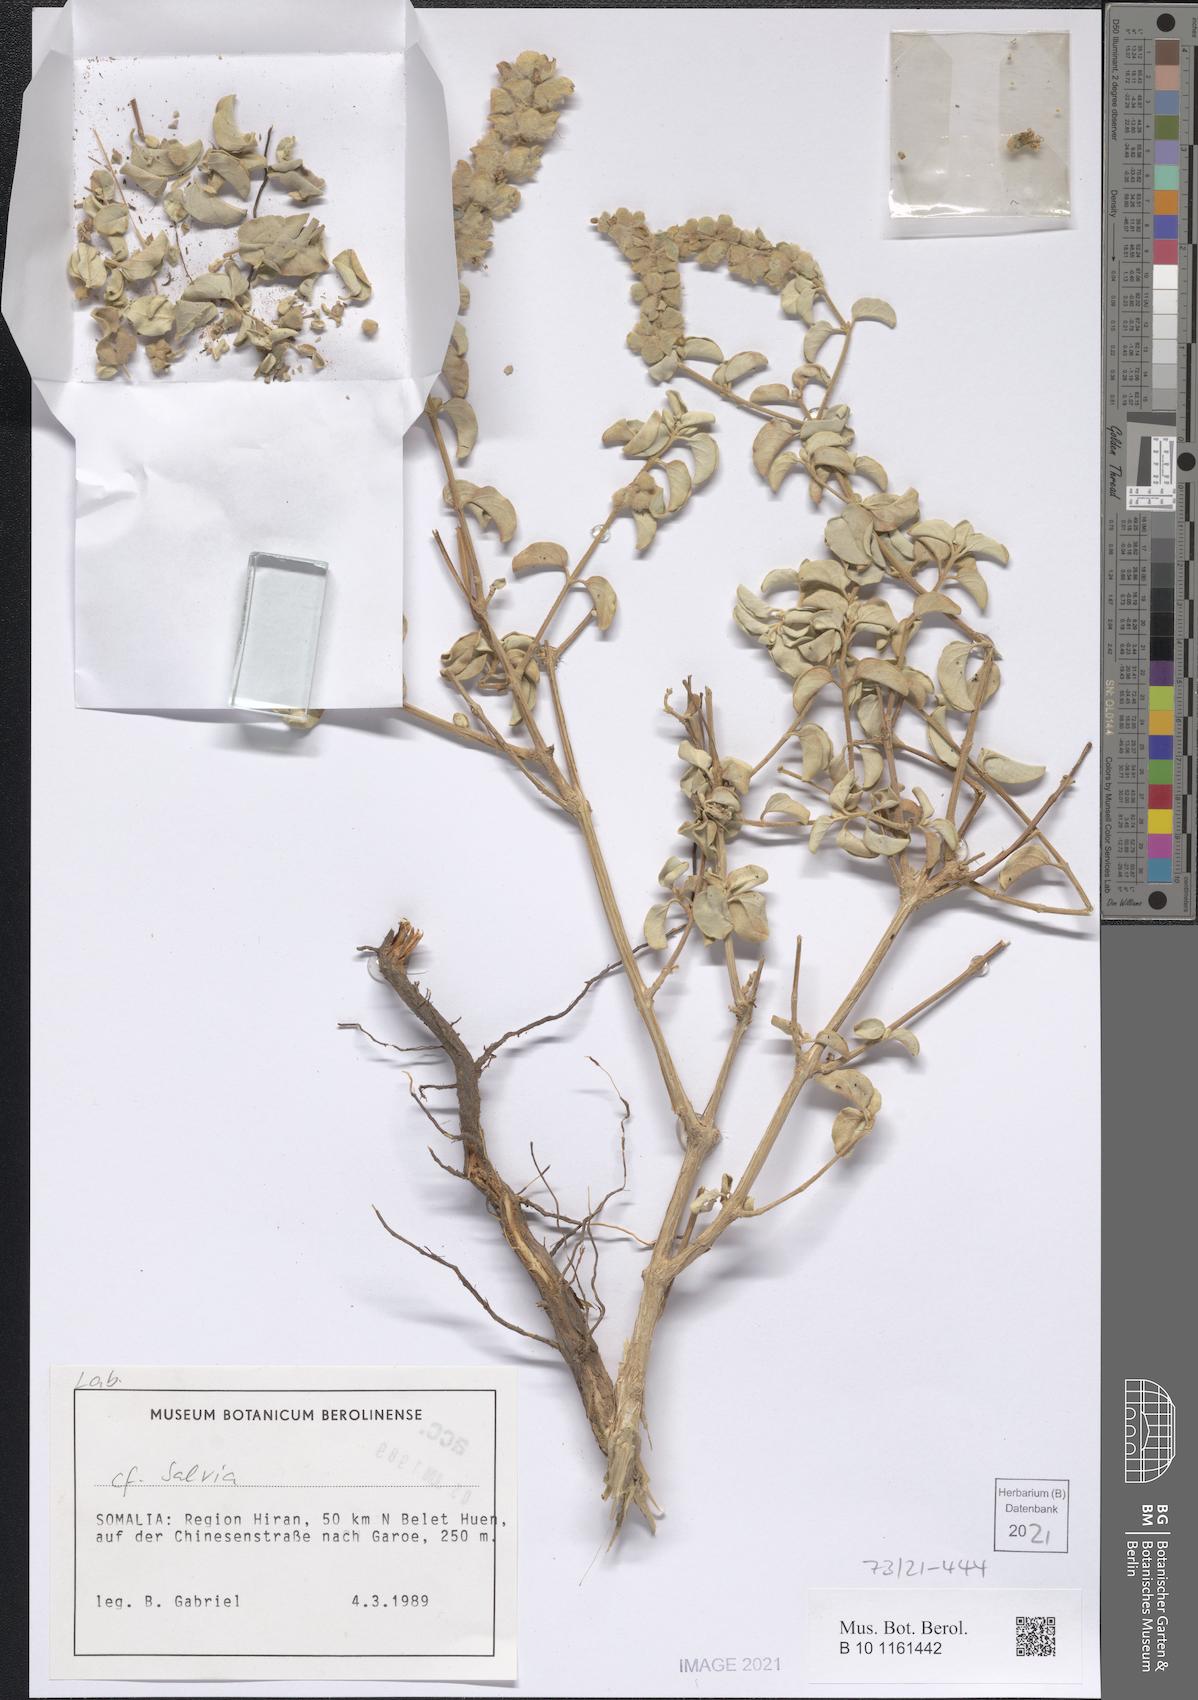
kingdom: Plantae
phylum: Tracheophyta
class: Magnoliopsida
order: Lamiales
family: Lamiaceae
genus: Ocimum
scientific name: Ocimum jamesii
